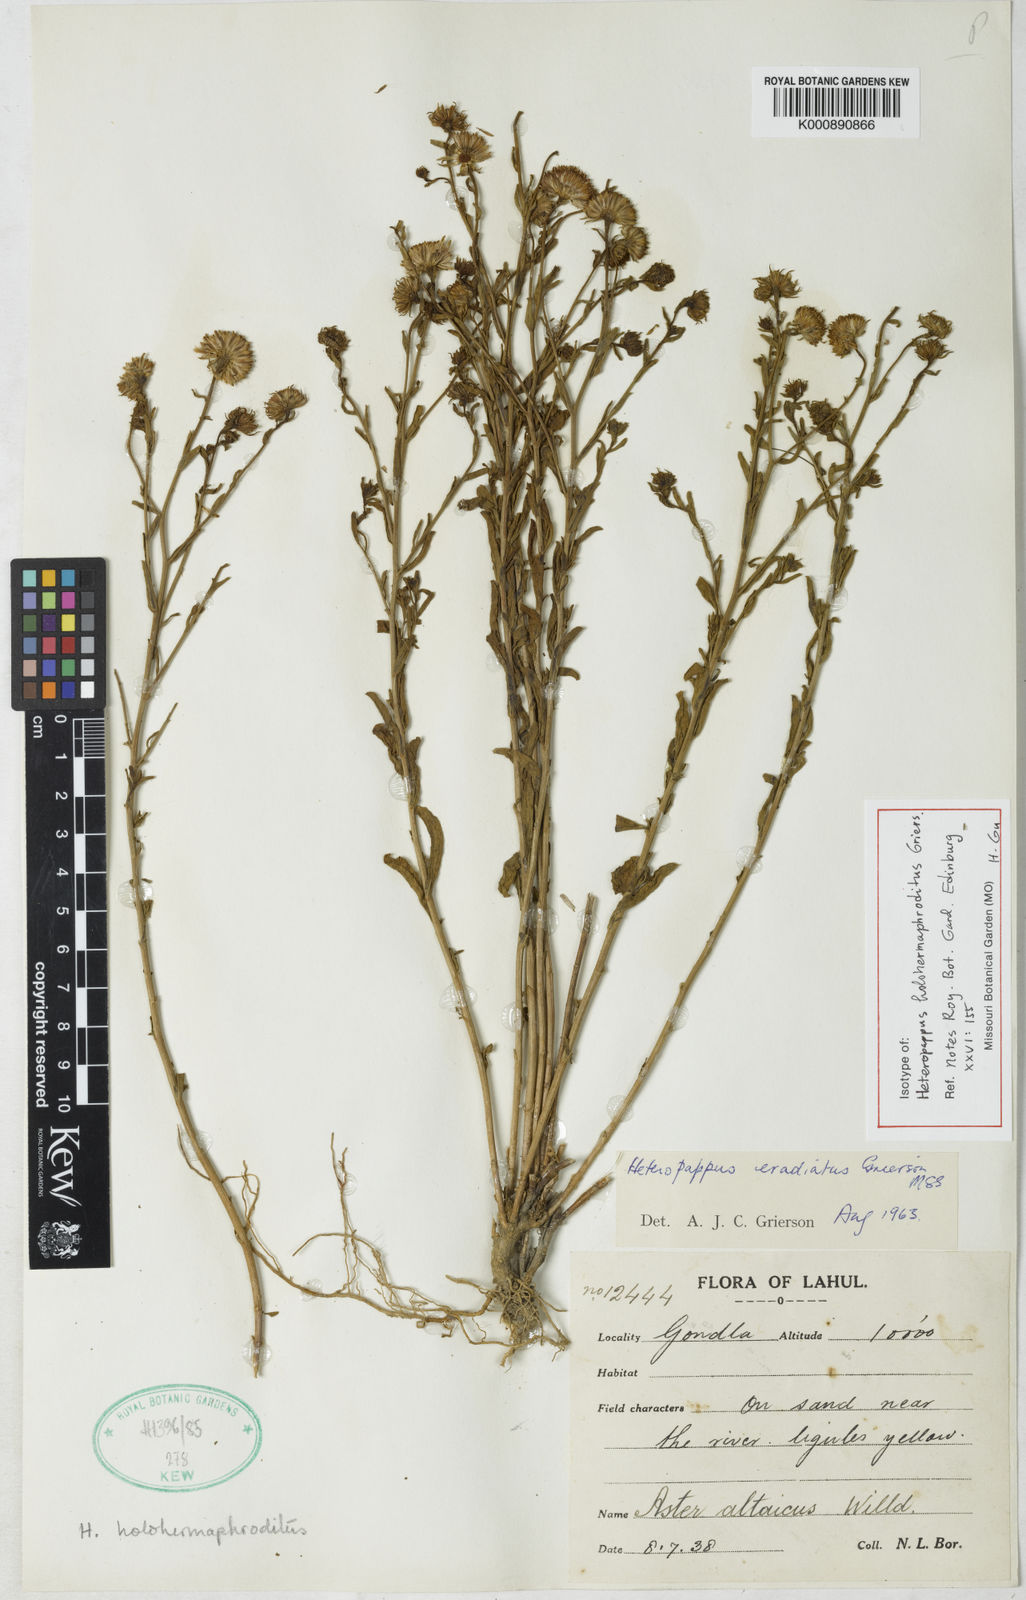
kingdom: Plantae
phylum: Tracheophyta
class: Magnoliopsida
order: Asterales
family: Asteraceae
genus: Heteropappus
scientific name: Heteropappus holohermaphroditus
